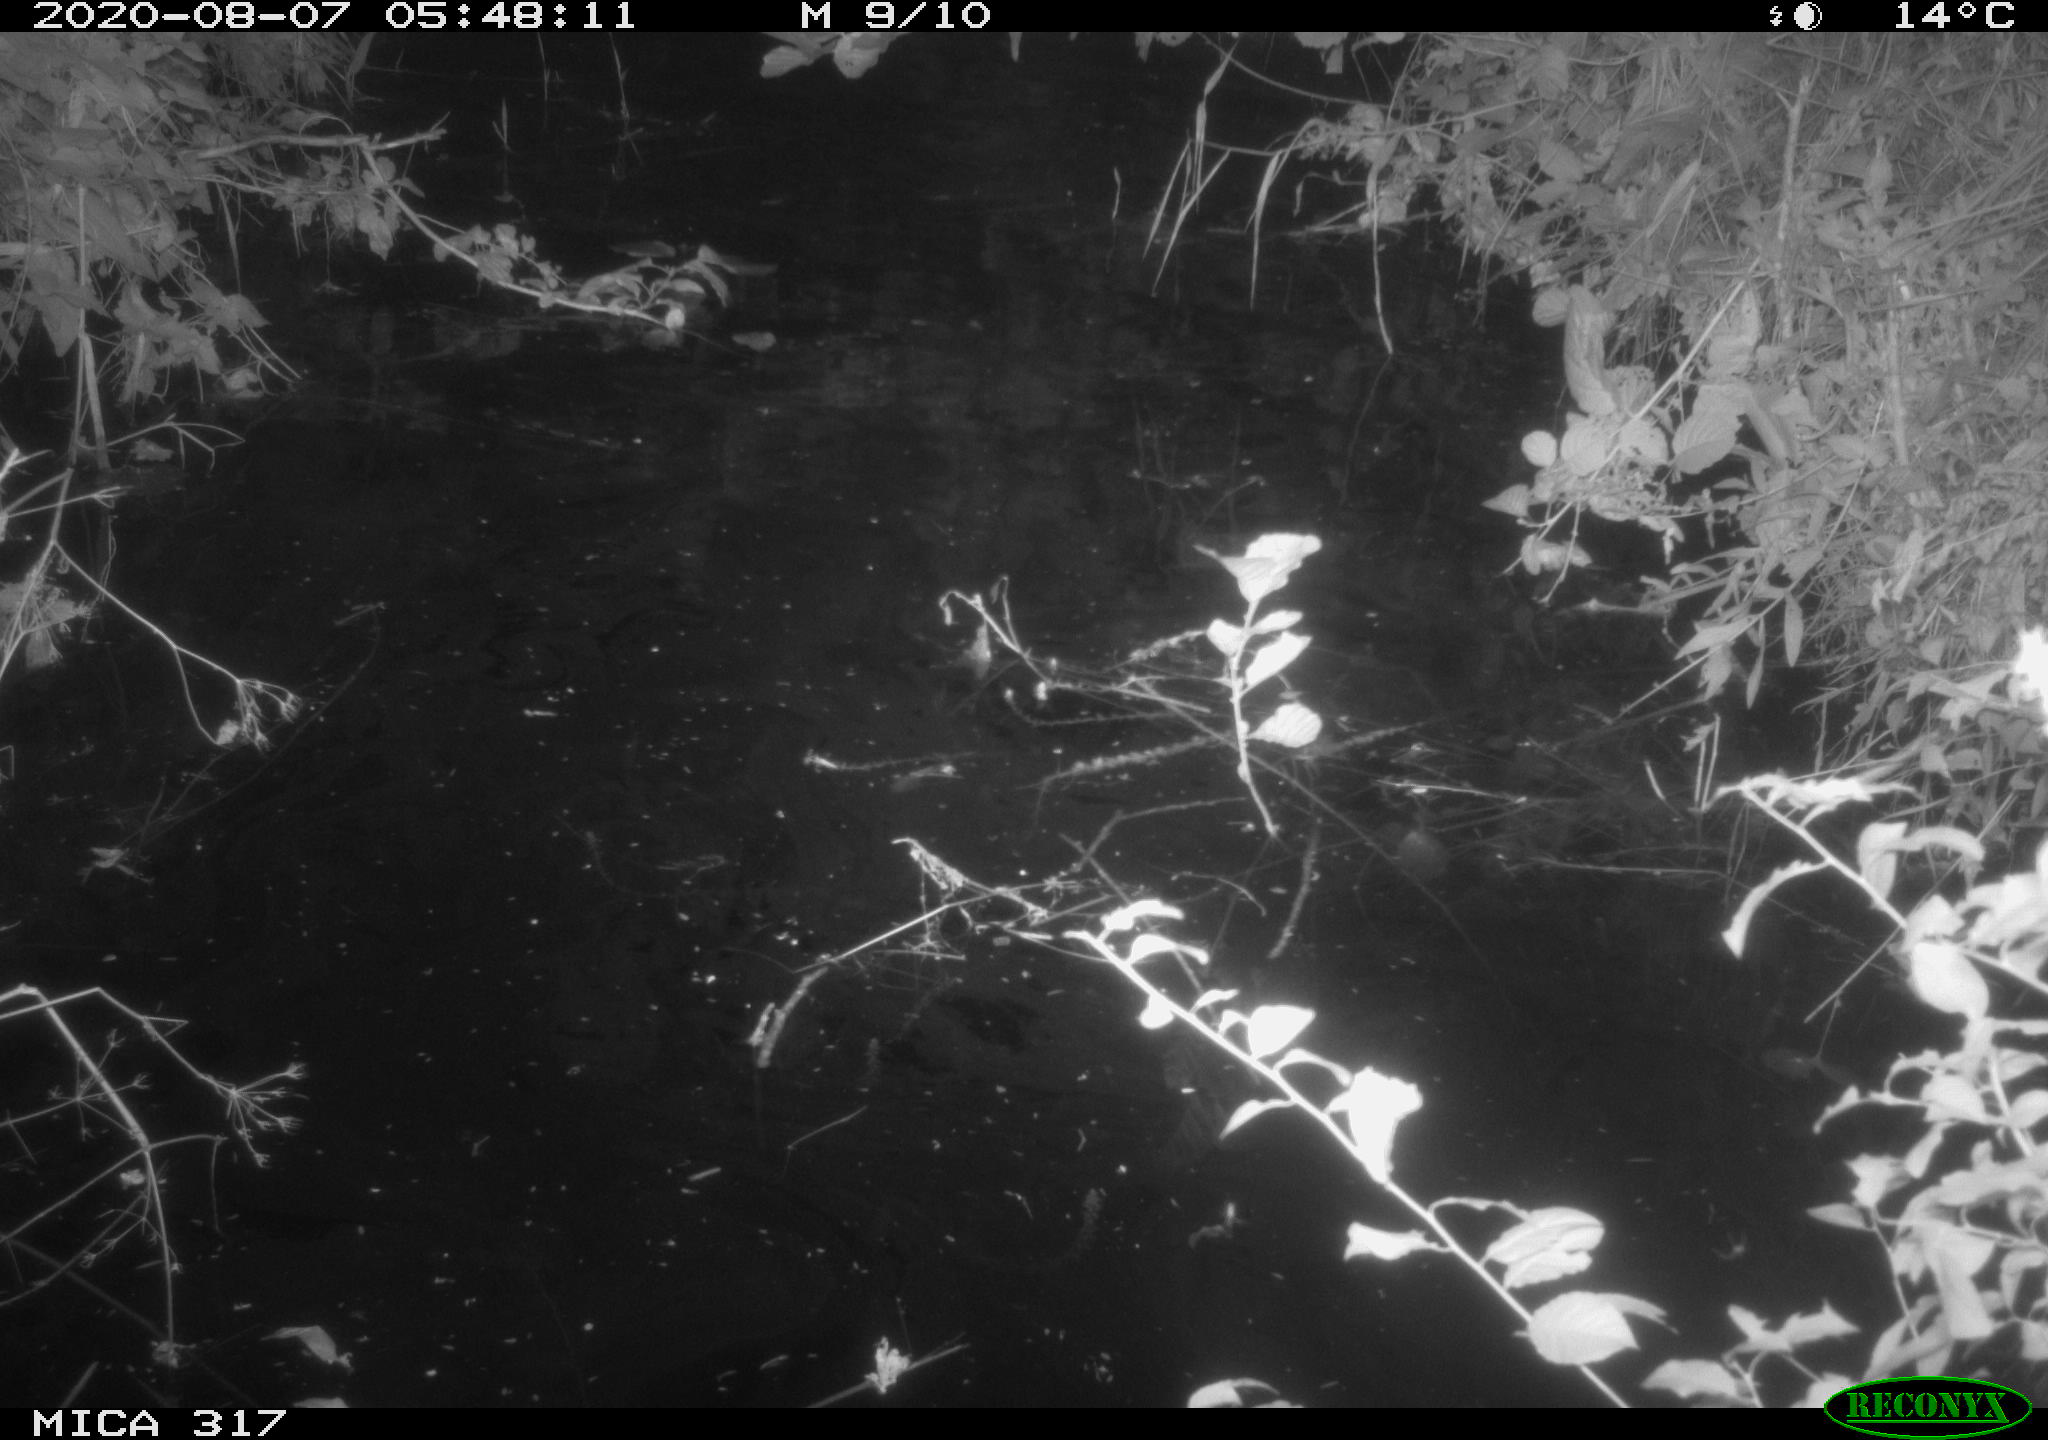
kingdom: Animalia
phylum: Chordata
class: Aves
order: Anseriformes
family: Anatidae
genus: Anas
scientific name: Anas platyrhynchos
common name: Mallard
